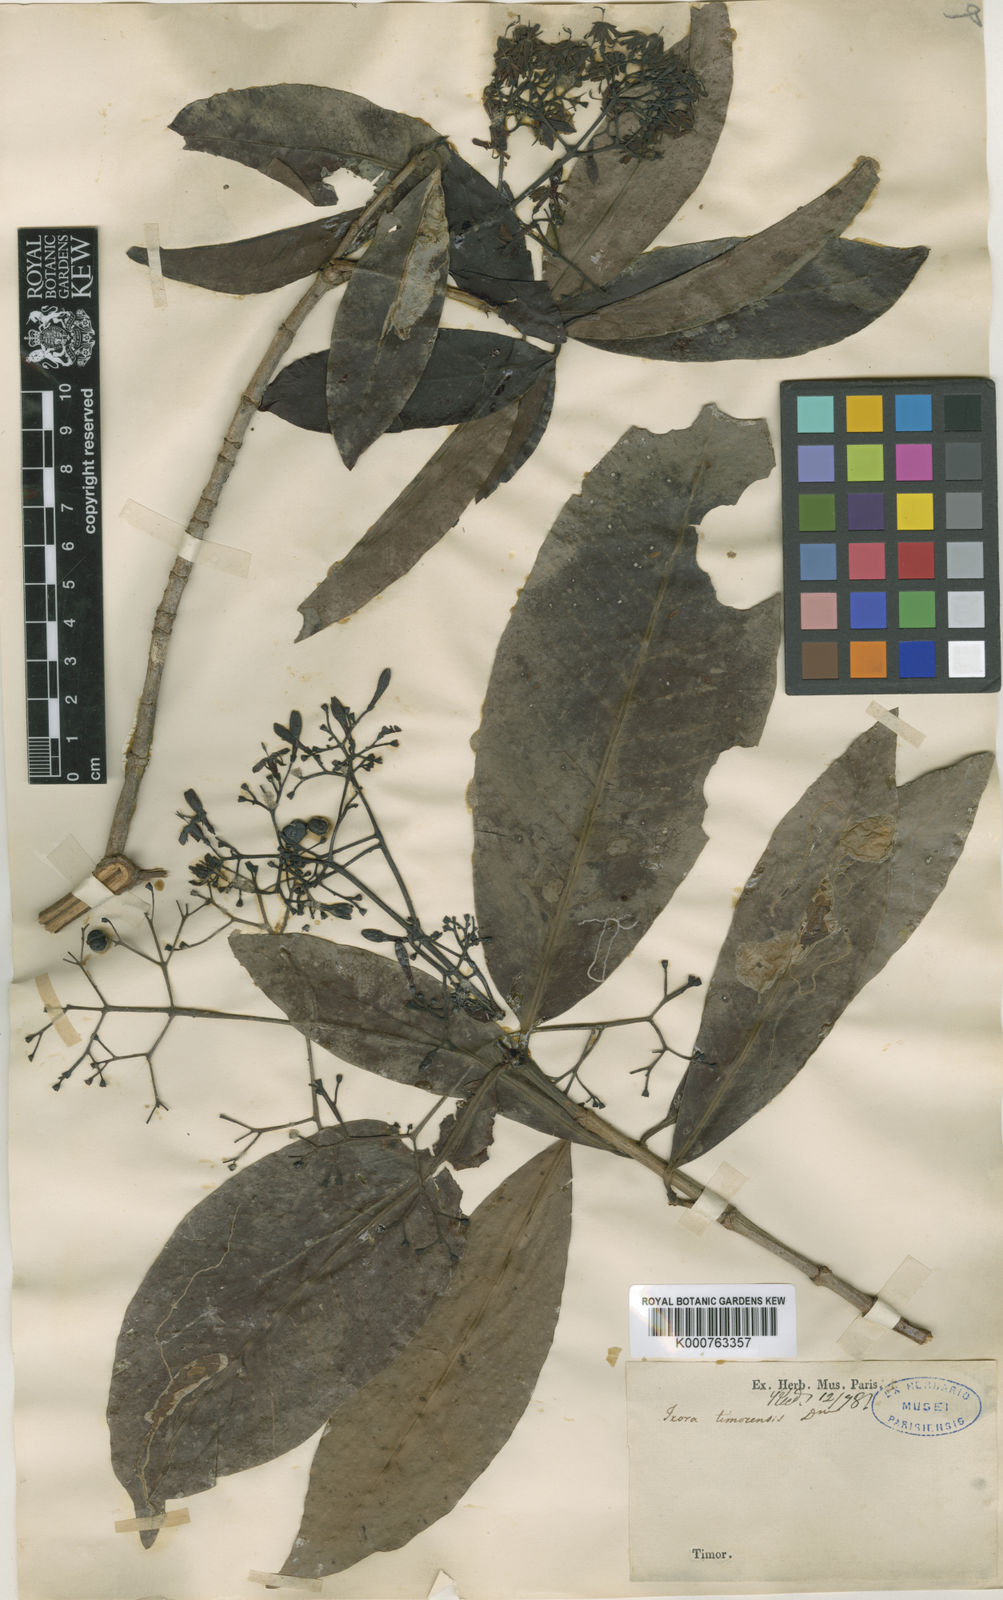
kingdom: Plantae
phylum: Tracheophyta
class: Magnoliopsida
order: Gentianales
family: Rubiaceae
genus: Ixora
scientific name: Ixora timorensis
